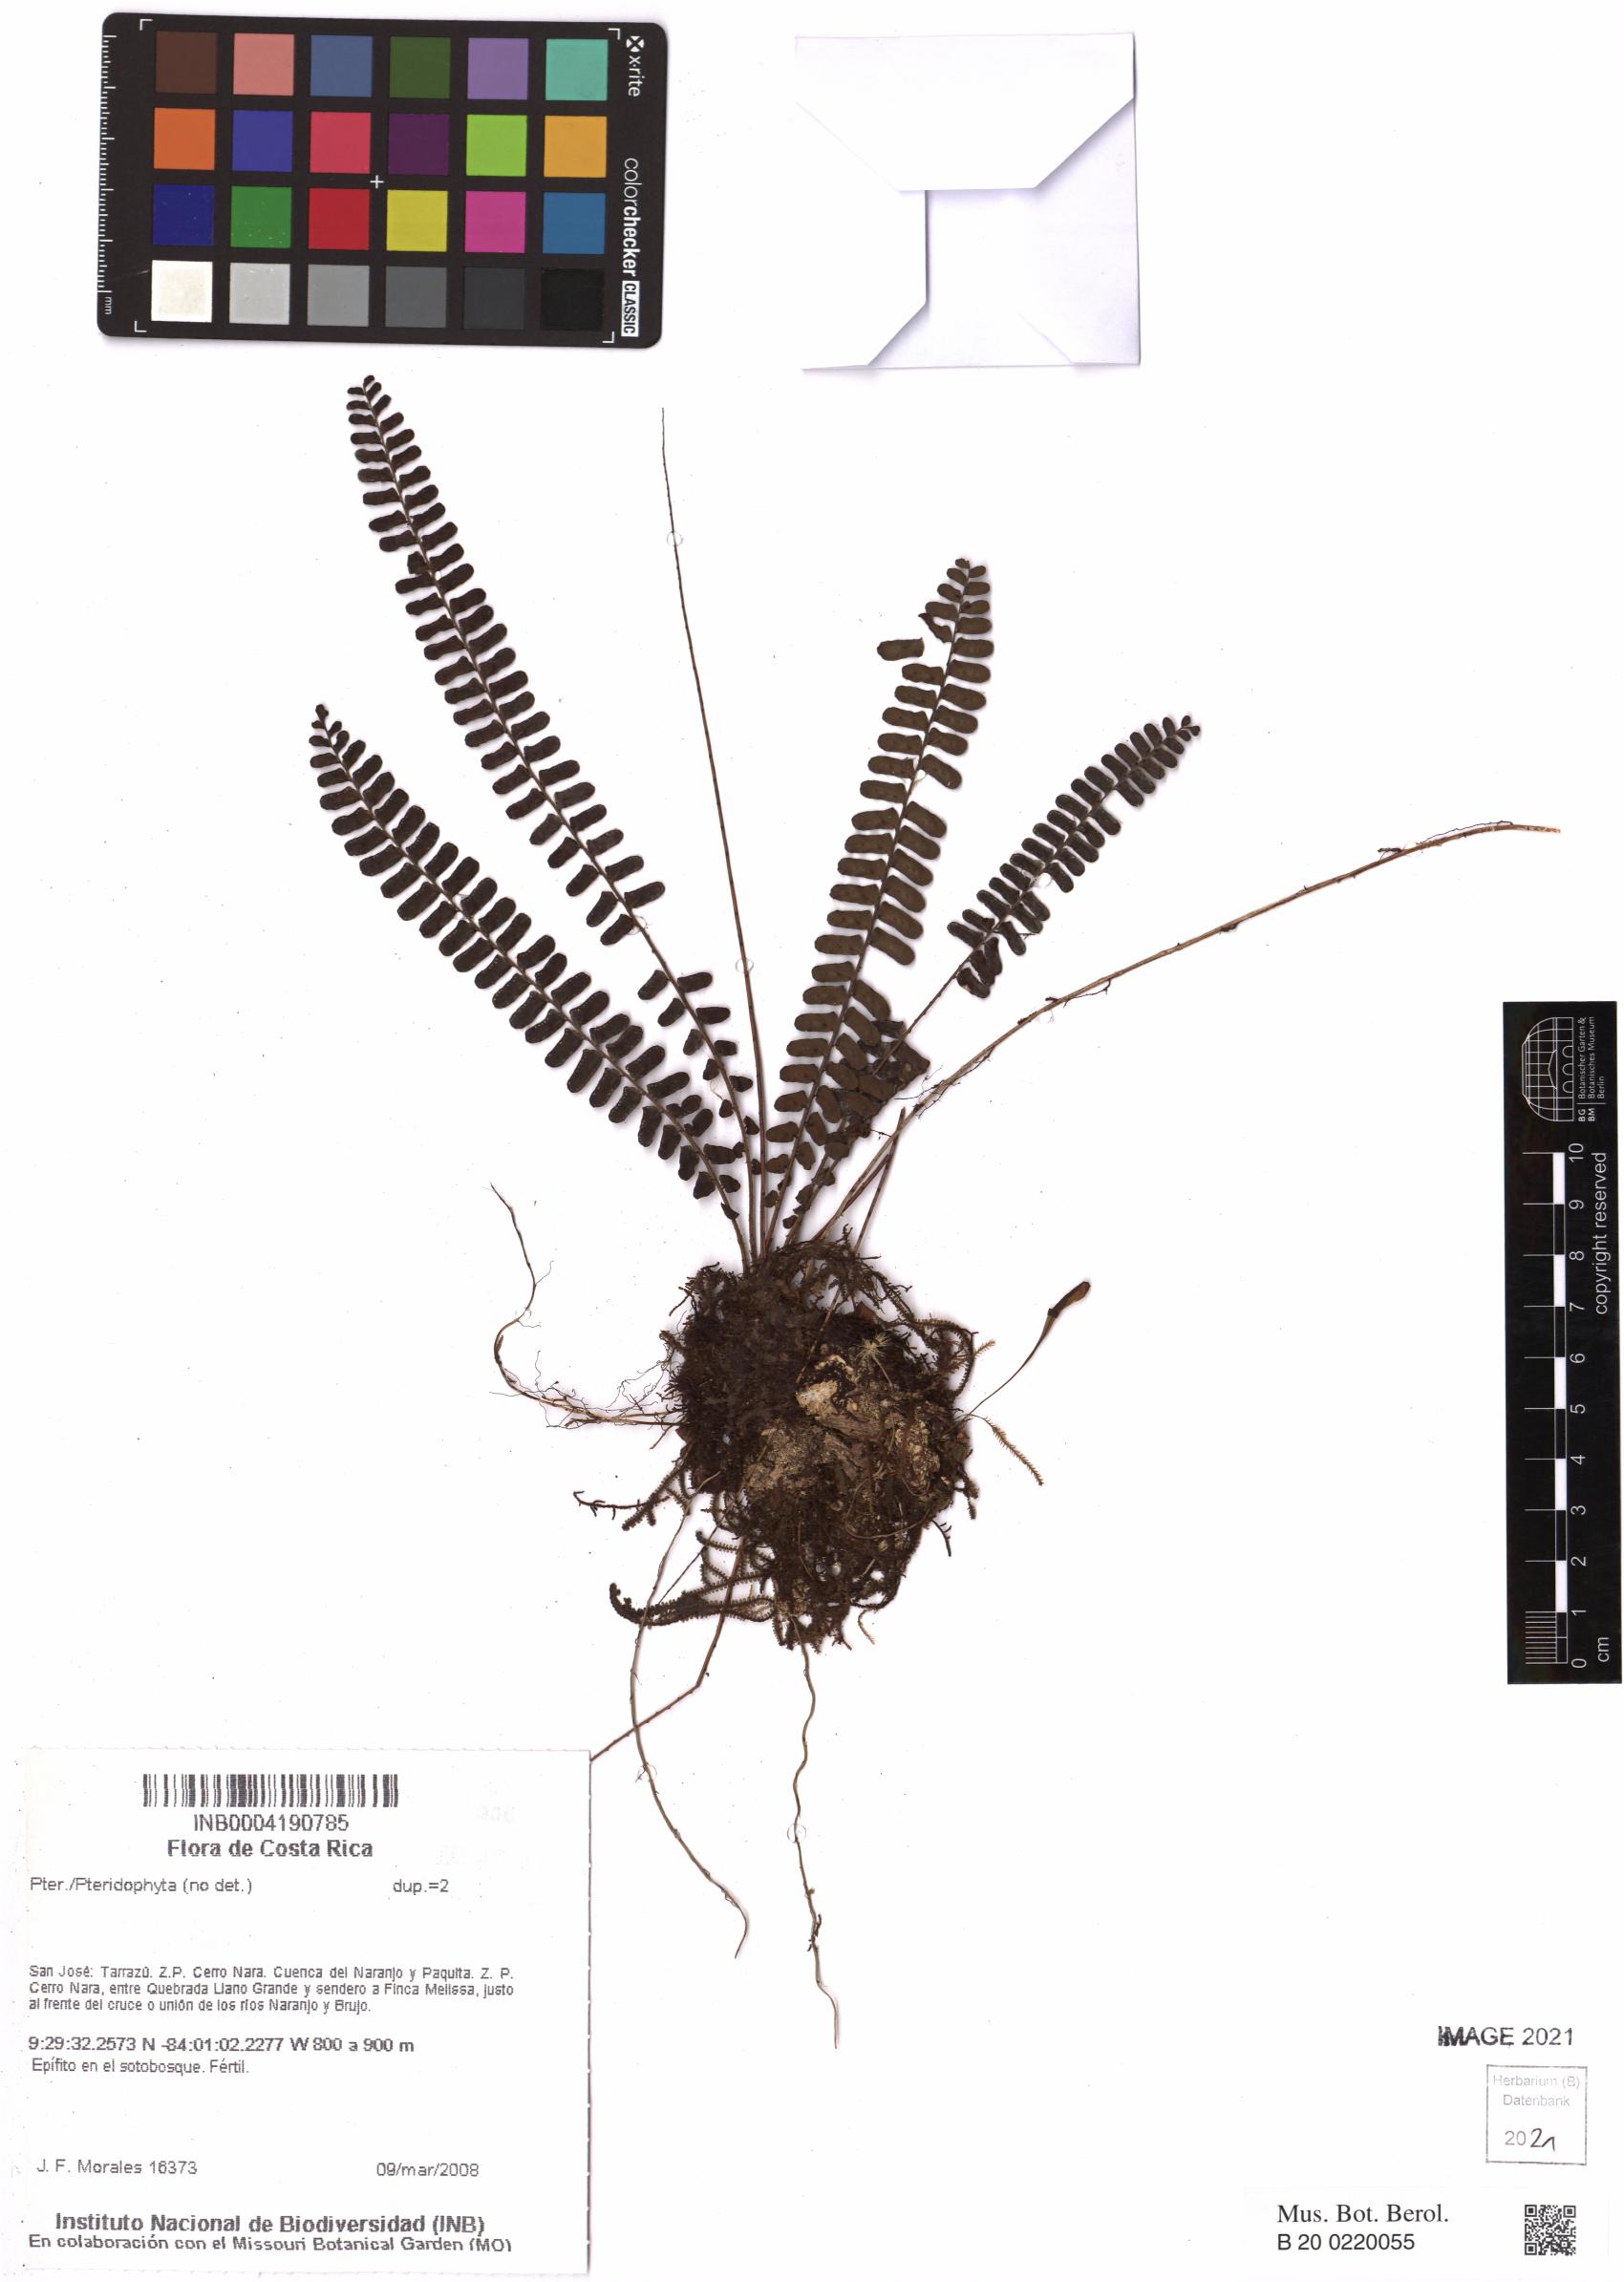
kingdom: Plantae
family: Pteridophyta
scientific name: Pteridophyta
